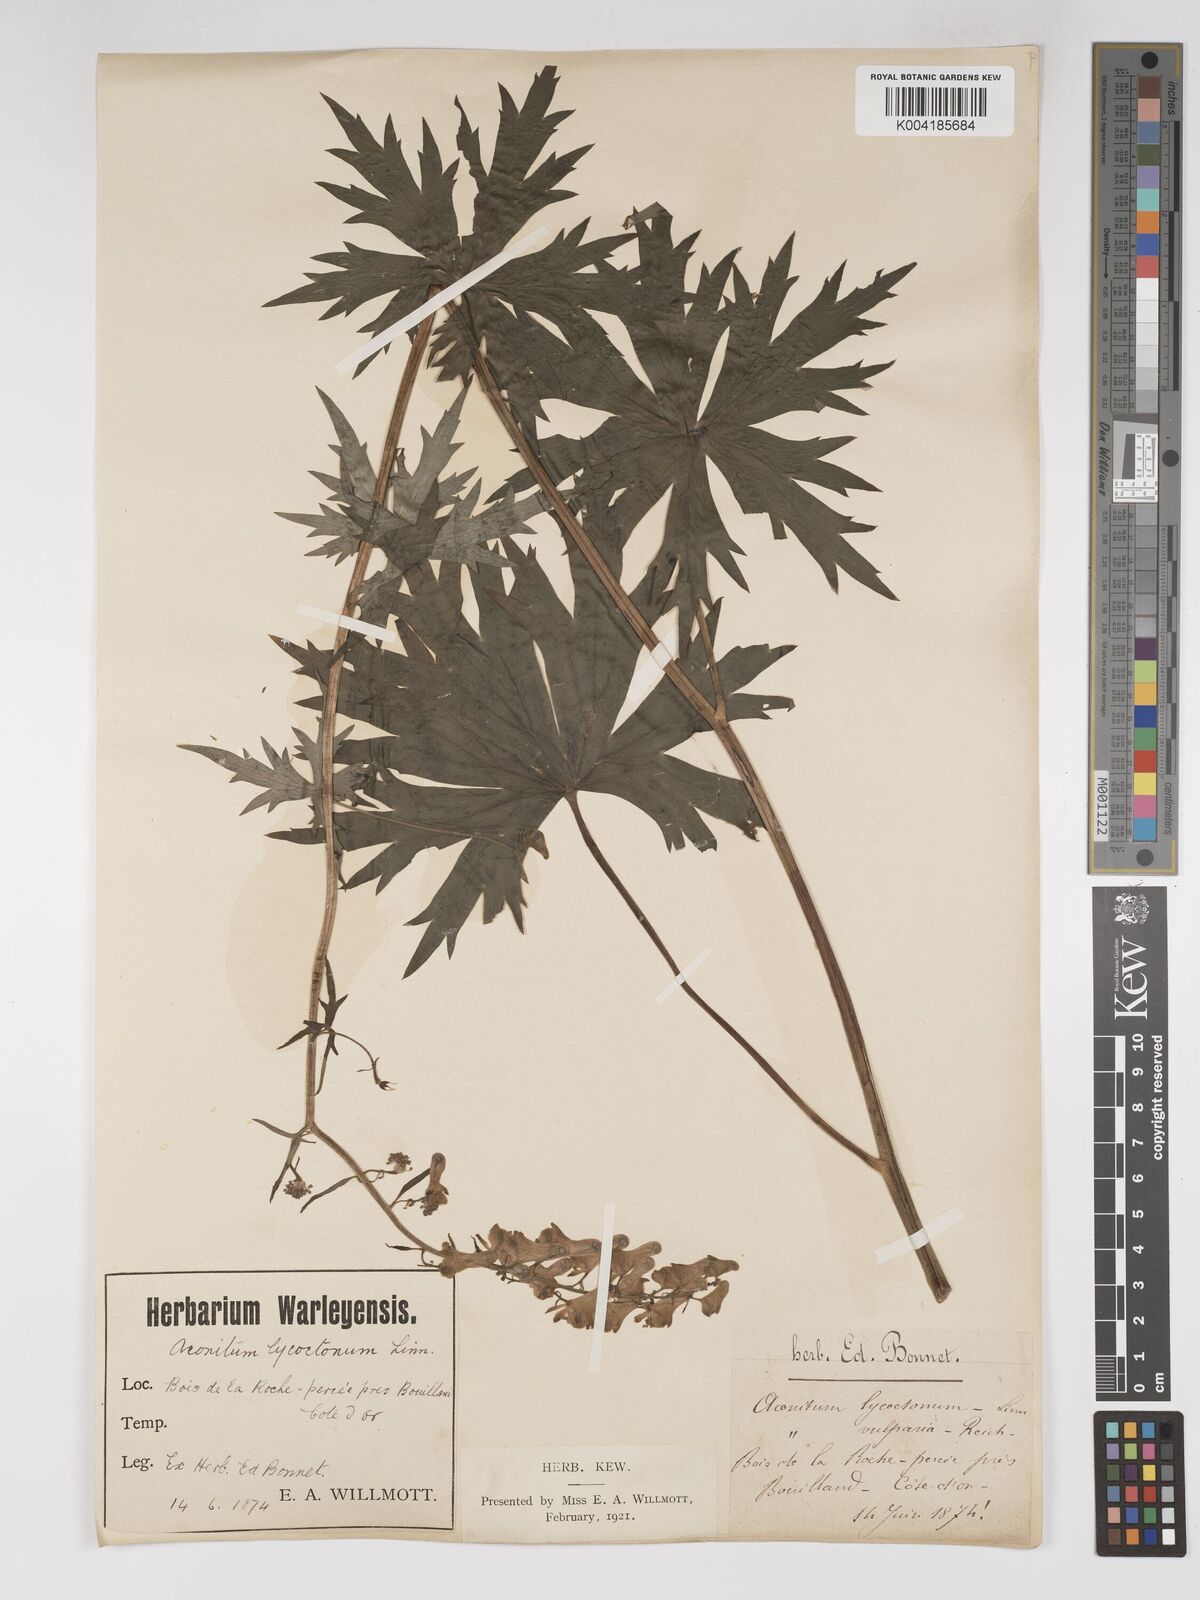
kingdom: Plantae
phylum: Tracheophyta
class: Magnoliopsida
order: Ranunculales
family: Ranunculaceae
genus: Aconitum
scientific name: Aconitum lycoctonum
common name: Wolf's-bane
